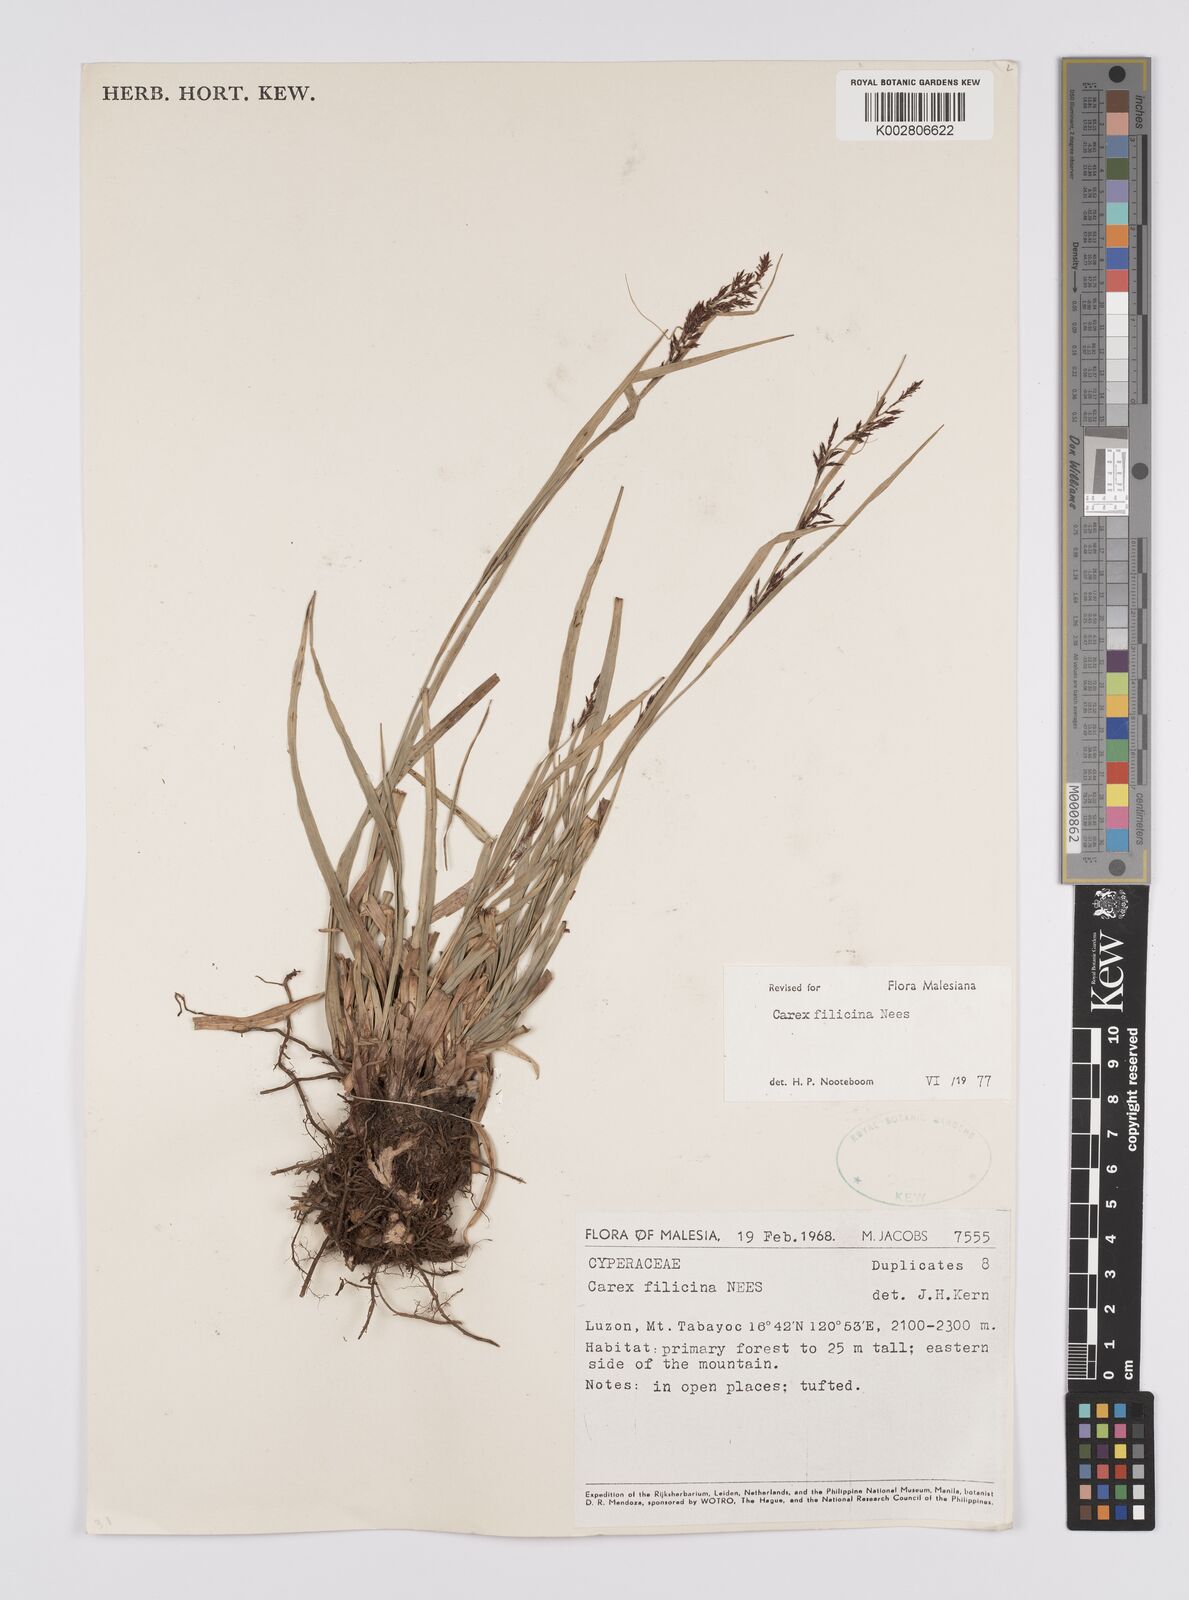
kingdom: Plantae
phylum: Tracheophyta
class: Liliopsida
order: Poales
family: Cyperaceae
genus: Carex
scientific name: Carex filicina
